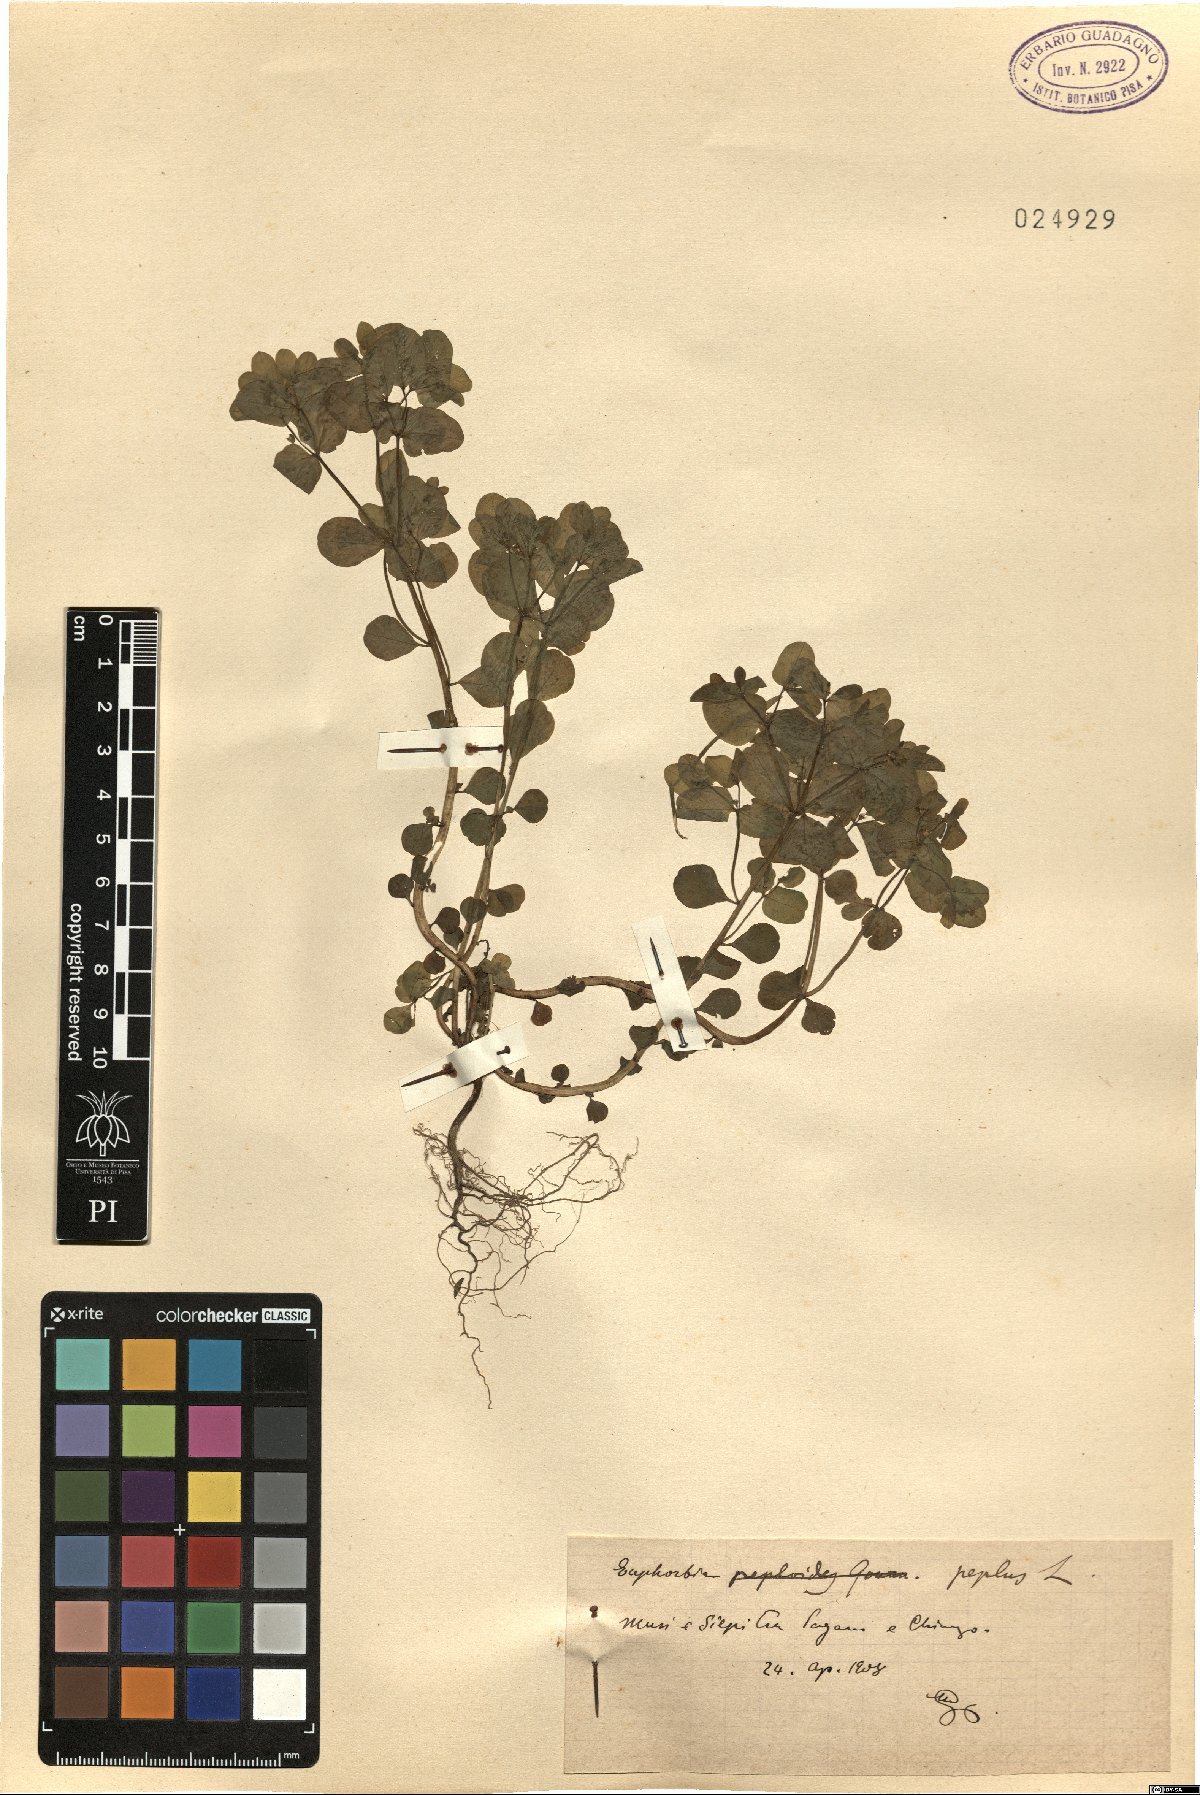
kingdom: Plantae
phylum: Tracheophyta
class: Magnoliopsida
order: Malpighiales
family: Euphorbiaceae
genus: Euphorbia
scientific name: Euphorbia peplus
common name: Petty spurge
